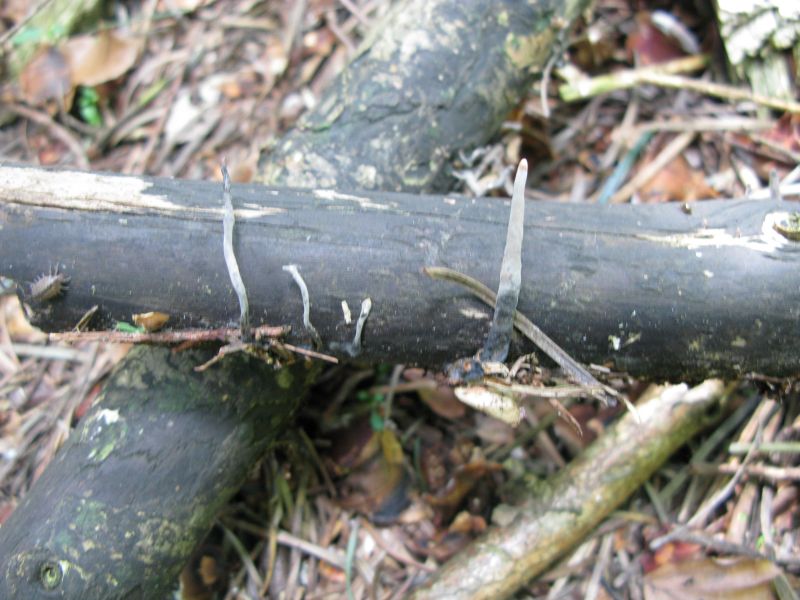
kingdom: Fungi
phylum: Ascomycota
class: Sordariomycetes
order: Xylariales
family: Xylariaceae
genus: Xylaria
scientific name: Xylaria longipes
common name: slank stødsvamp
